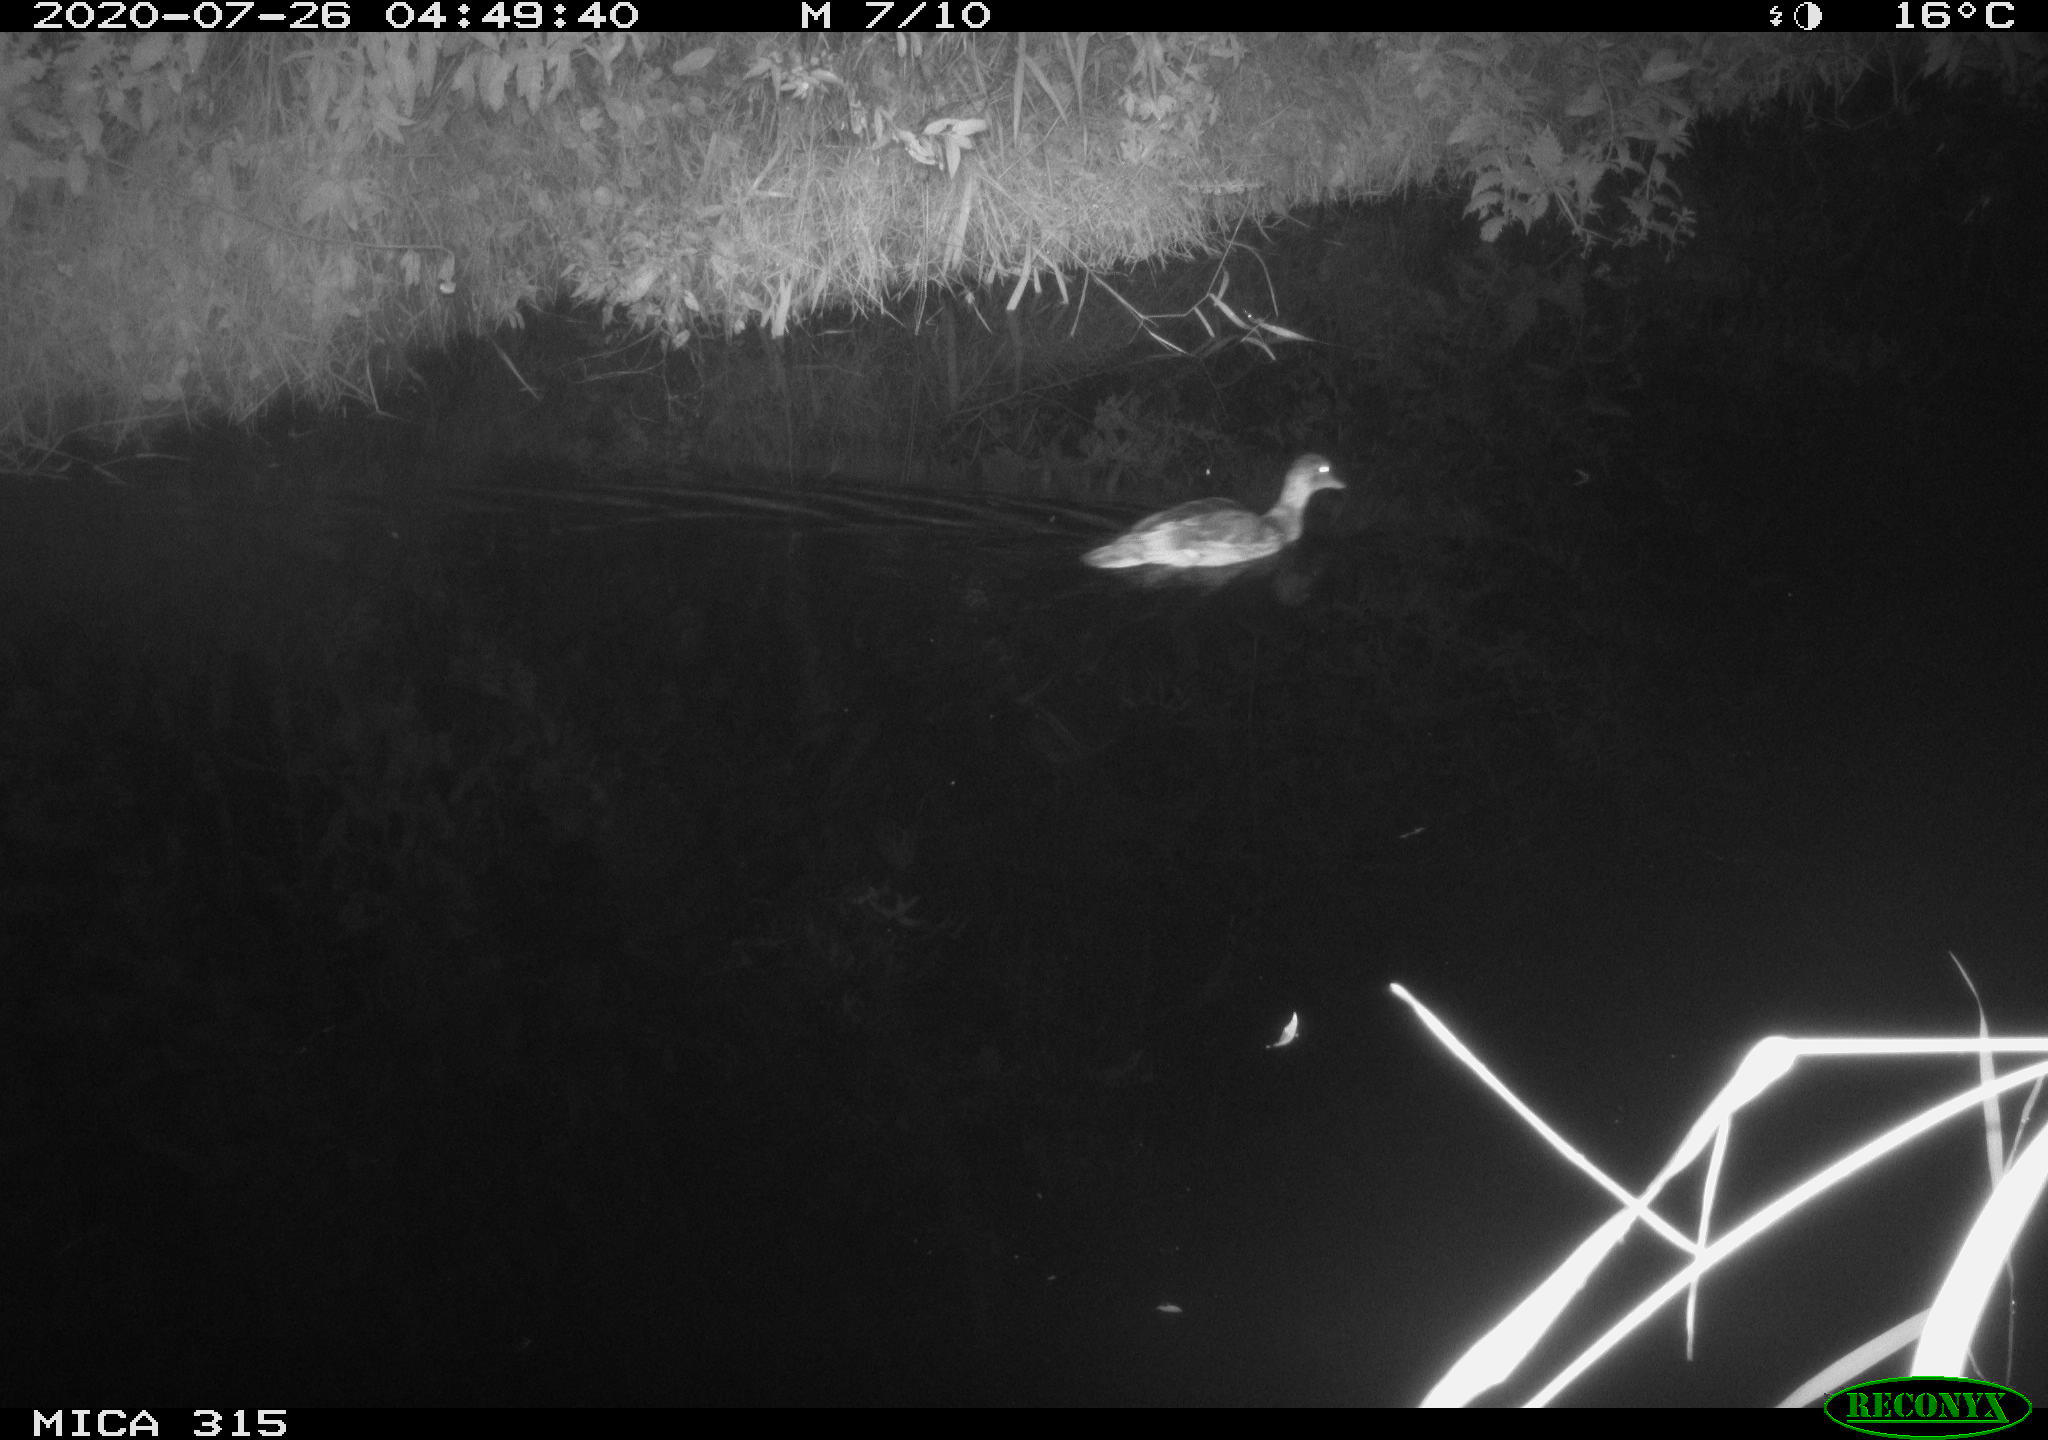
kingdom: Animalia
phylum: Chordata
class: Aves
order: Anseriformes
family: Anatidae
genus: Anas
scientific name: Anas platyrhynchos
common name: Mallard
